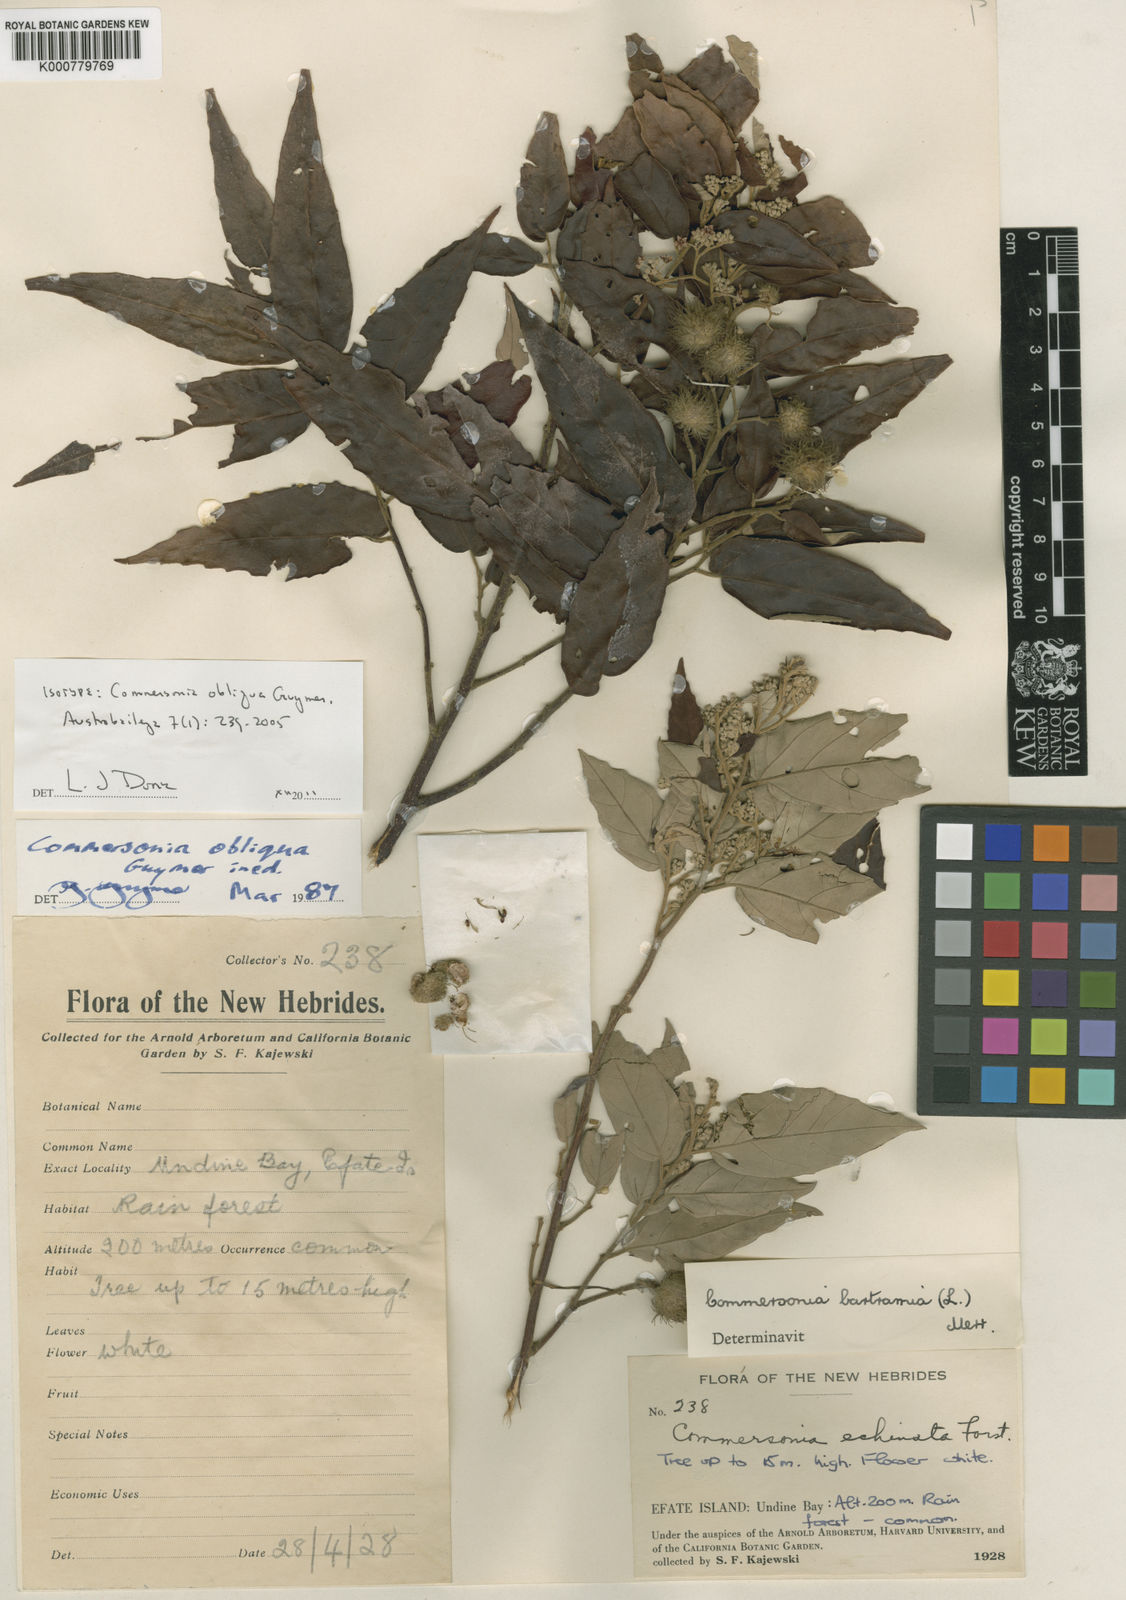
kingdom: Plantae
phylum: Tracheophyta
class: Magnoliopsida
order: Malvales
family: Malvaceae
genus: Commersonia
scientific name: Commersonia obliqua
